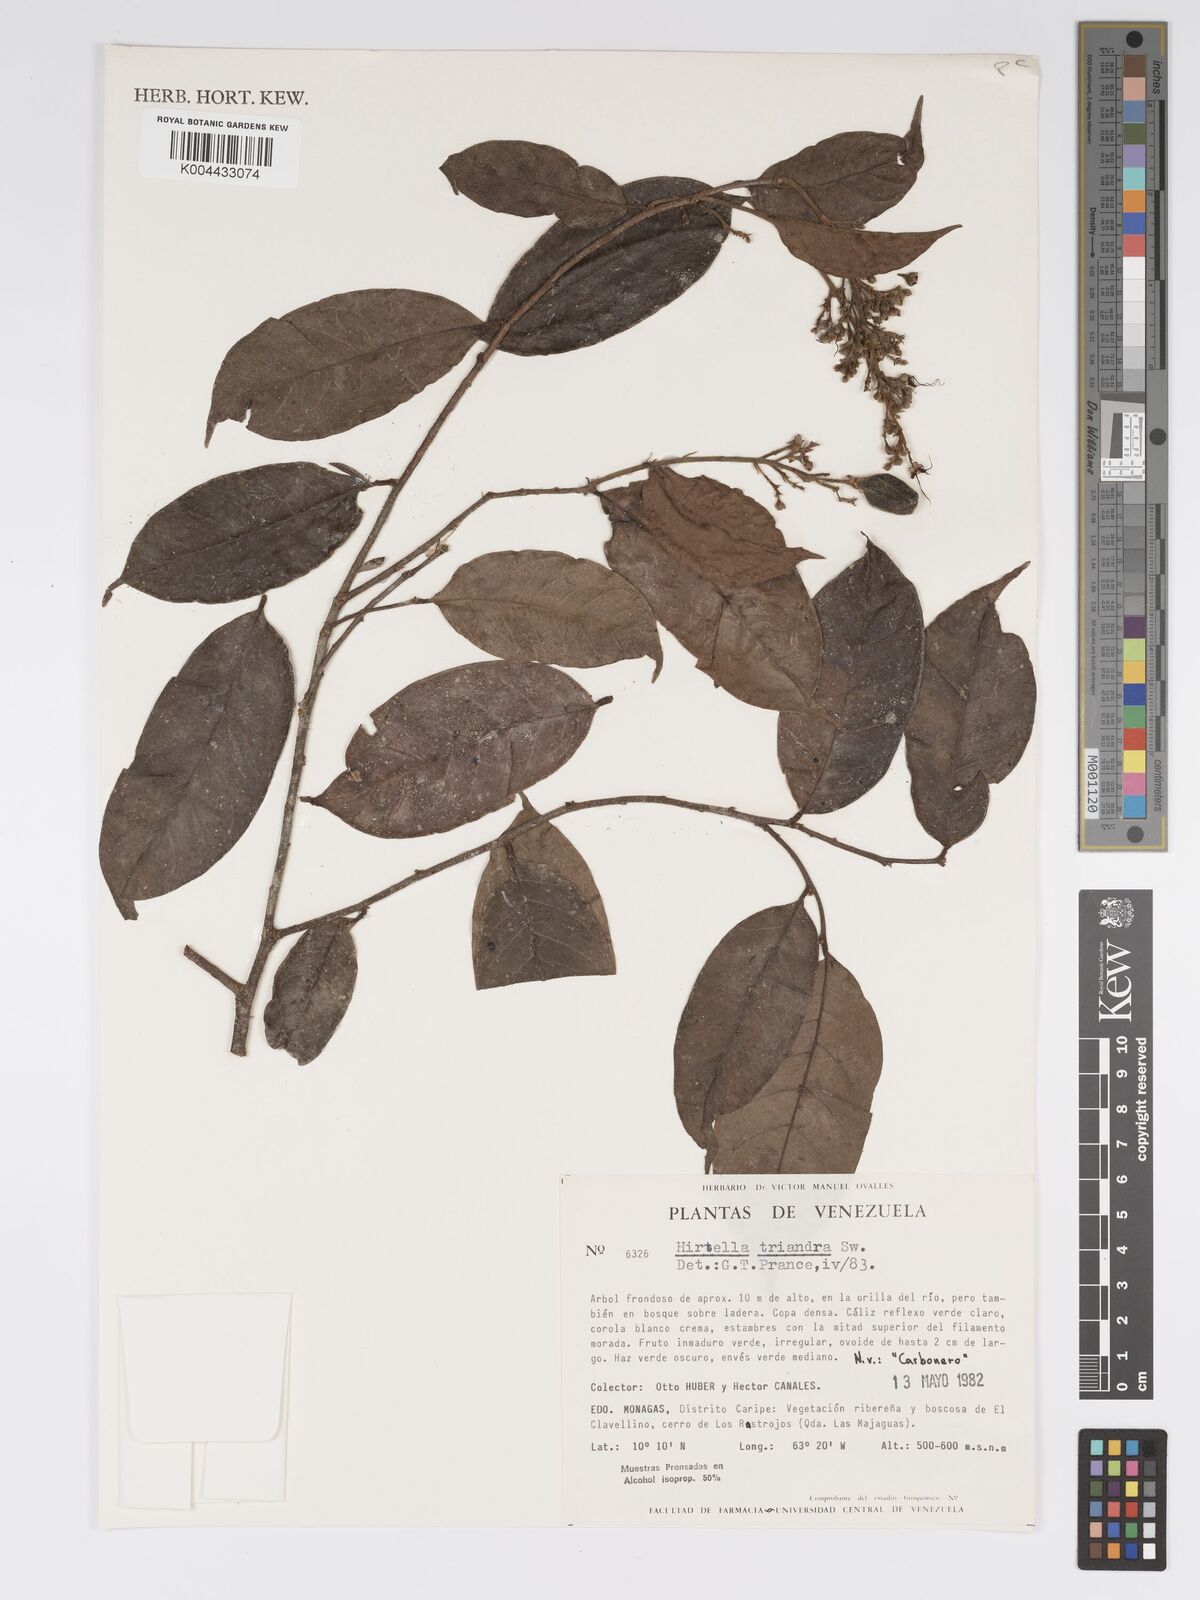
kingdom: Plantae
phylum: Tracheophyta
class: Magnoliopsida
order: Malpighiales
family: Chrysobalanaceae
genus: Hirtella
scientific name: Hirtella triandra
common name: Hairy plum
